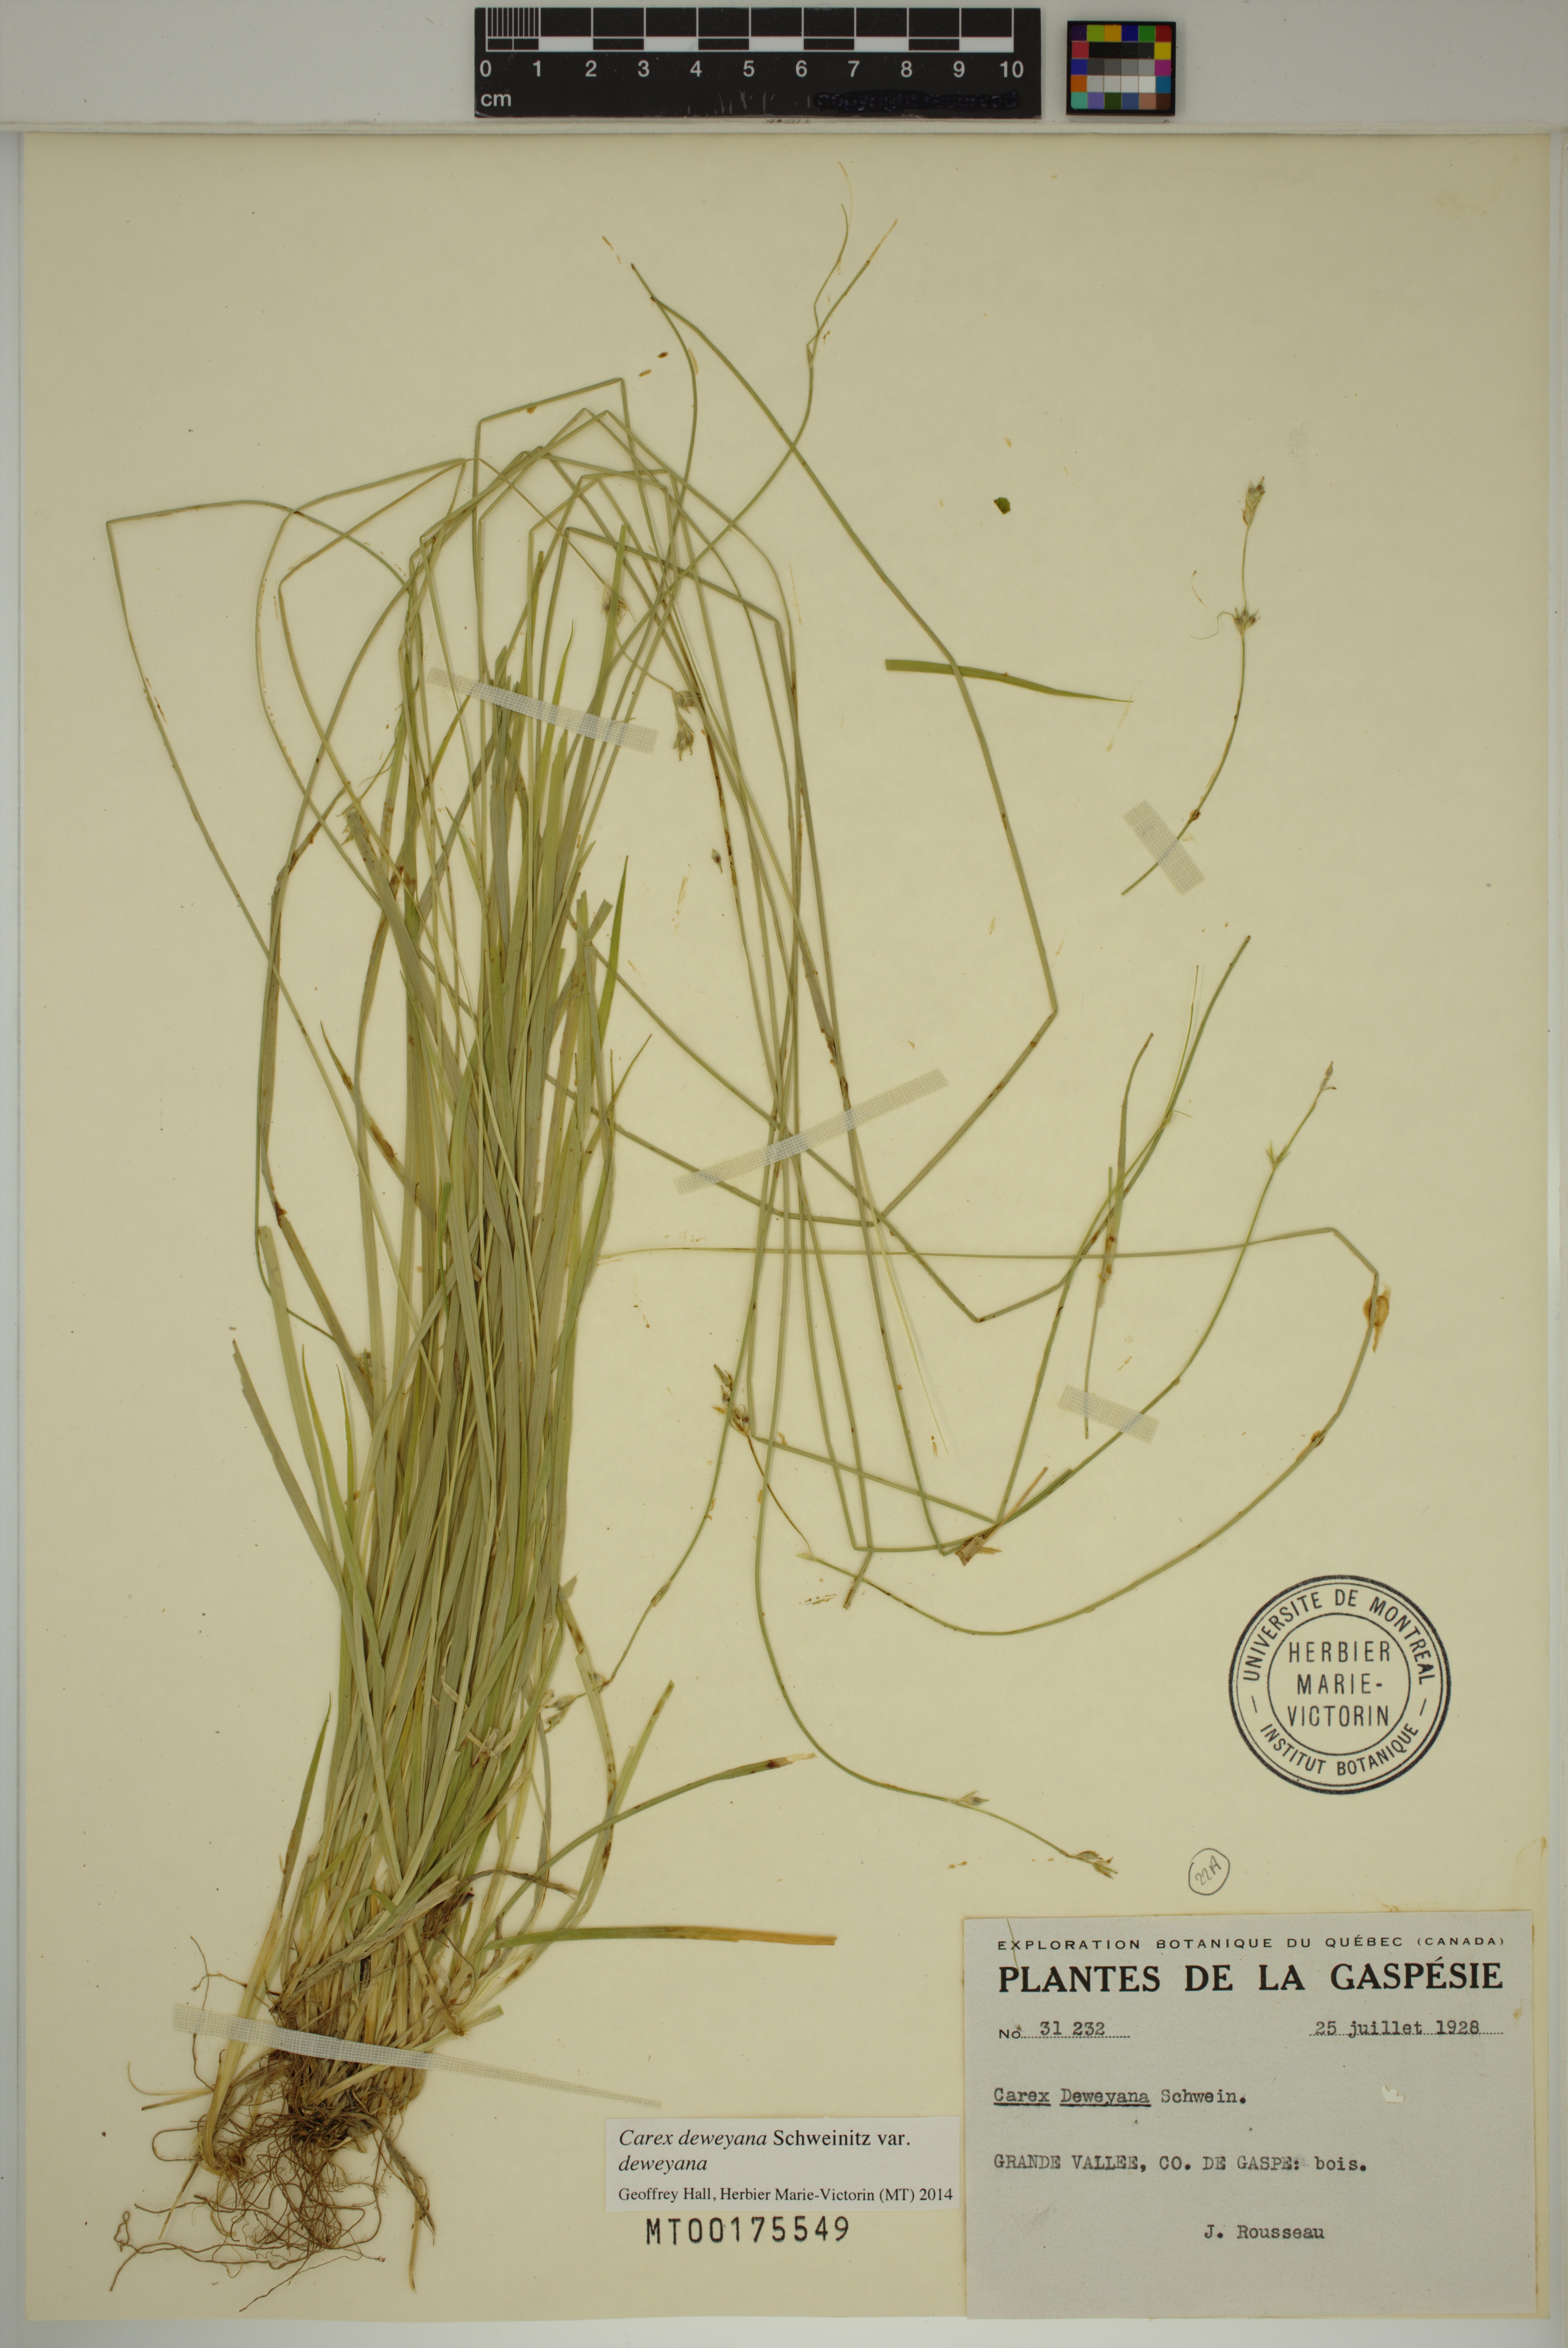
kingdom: Plantae
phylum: Tracheophyta
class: Liliopsida
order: Poales
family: Cyperaceae
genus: Carex
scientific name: Carex deweyana
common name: Dewey's sedge
